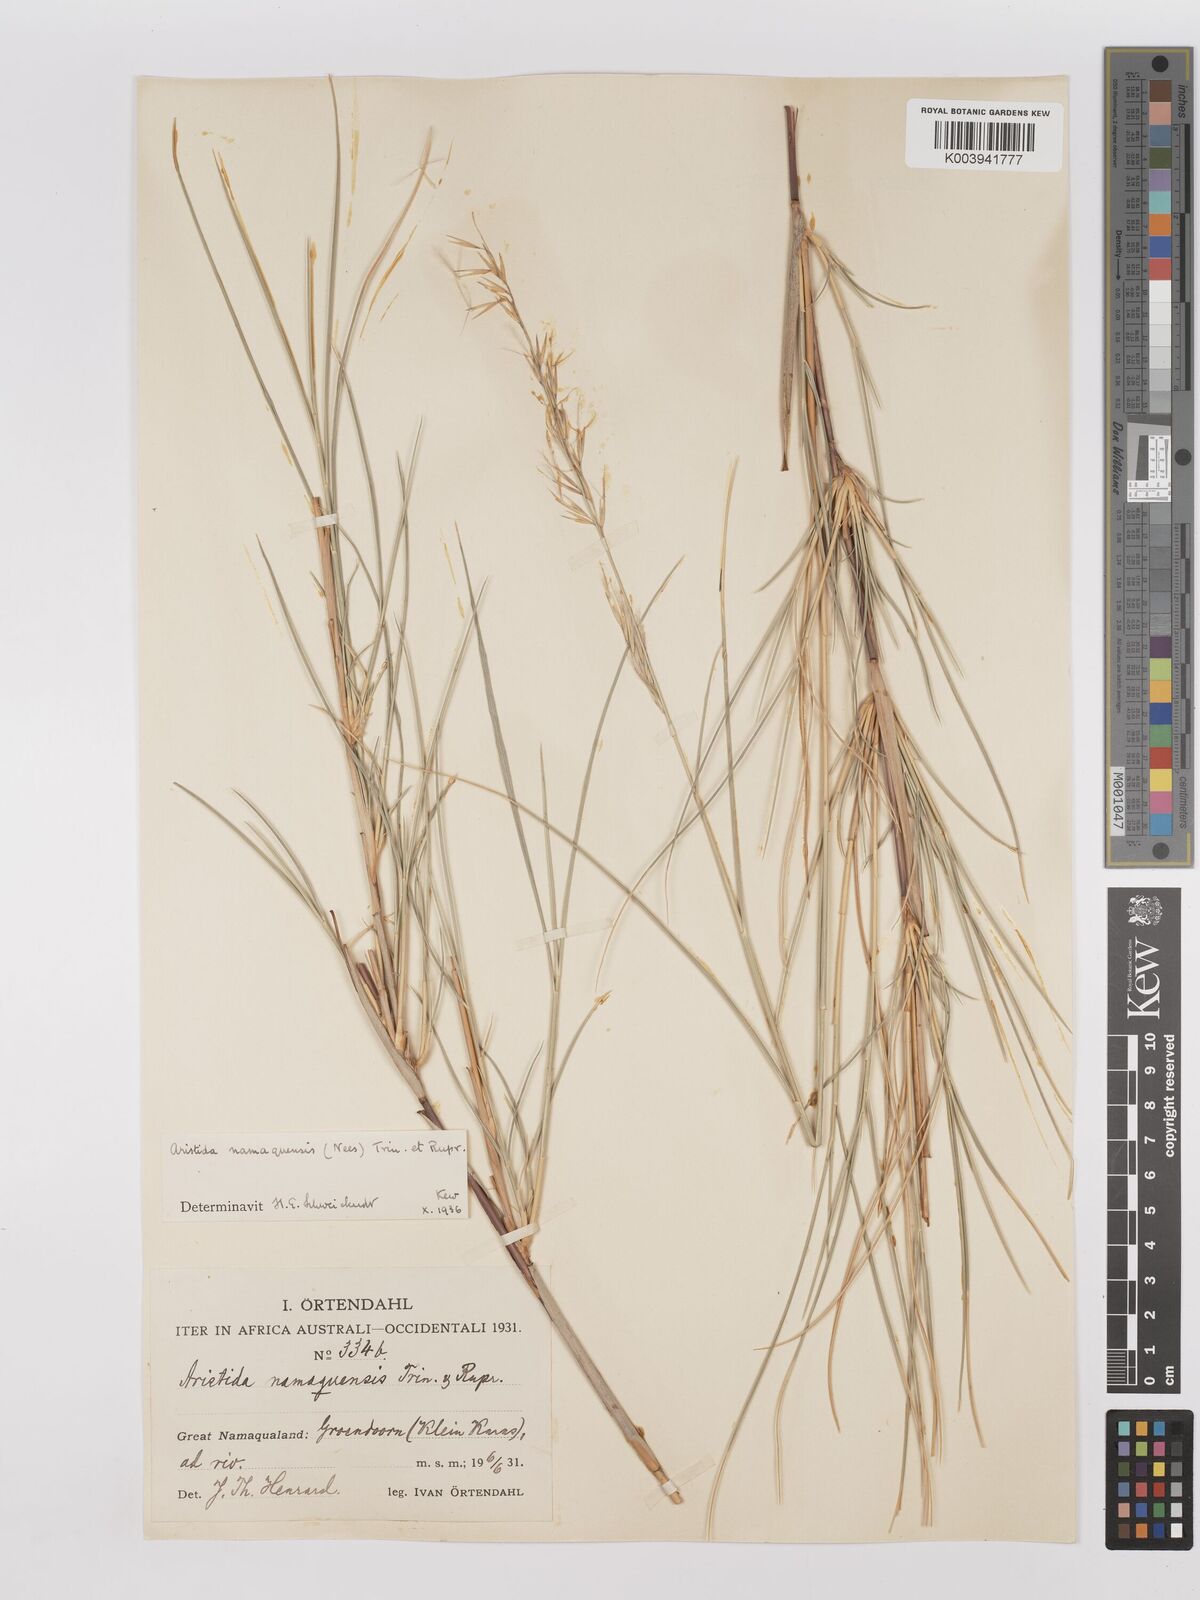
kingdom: Plantae
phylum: Tracheophyta
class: Liliopsida
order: Poales
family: Poaceae
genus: Stipagrostis
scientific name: Stipagrostis namaquensis
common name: River bushman grass
